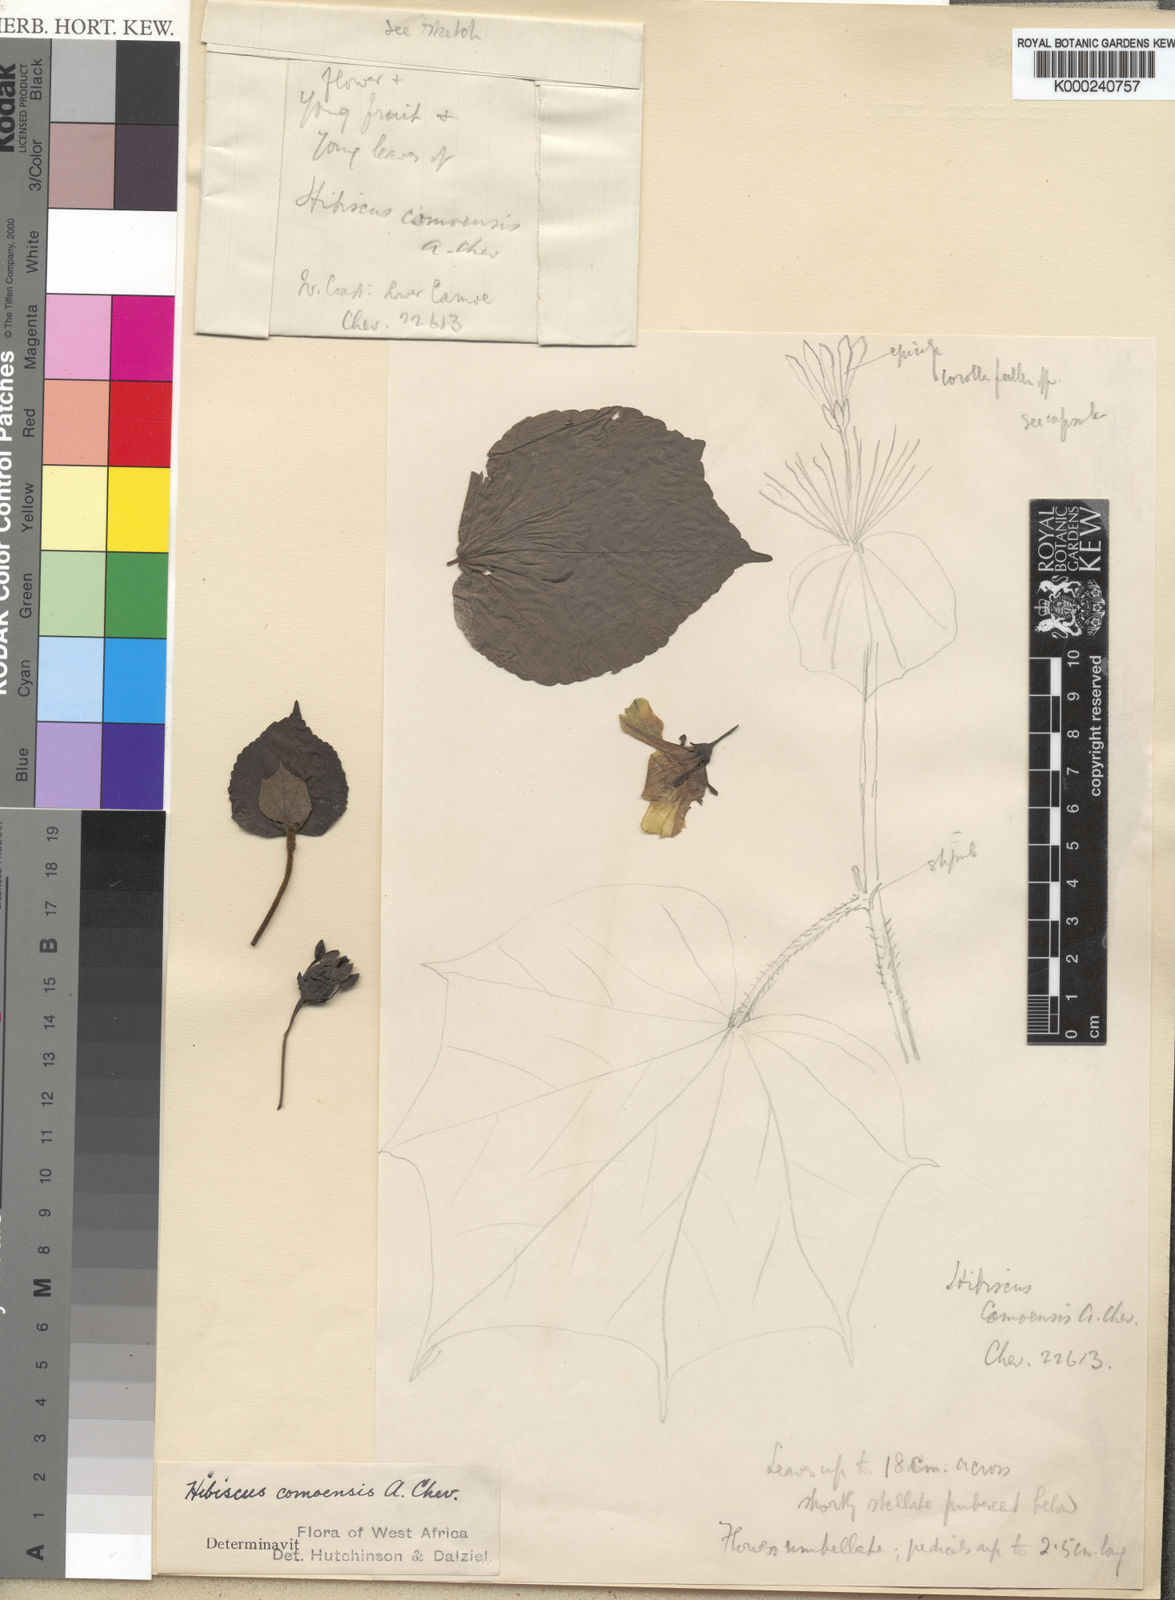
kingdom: Plantae
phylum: Tracheophyta
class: Magnoliopsida
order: Malvales
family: Malvaceae
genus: Hibiscus
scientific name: Hibiscus comoensis
